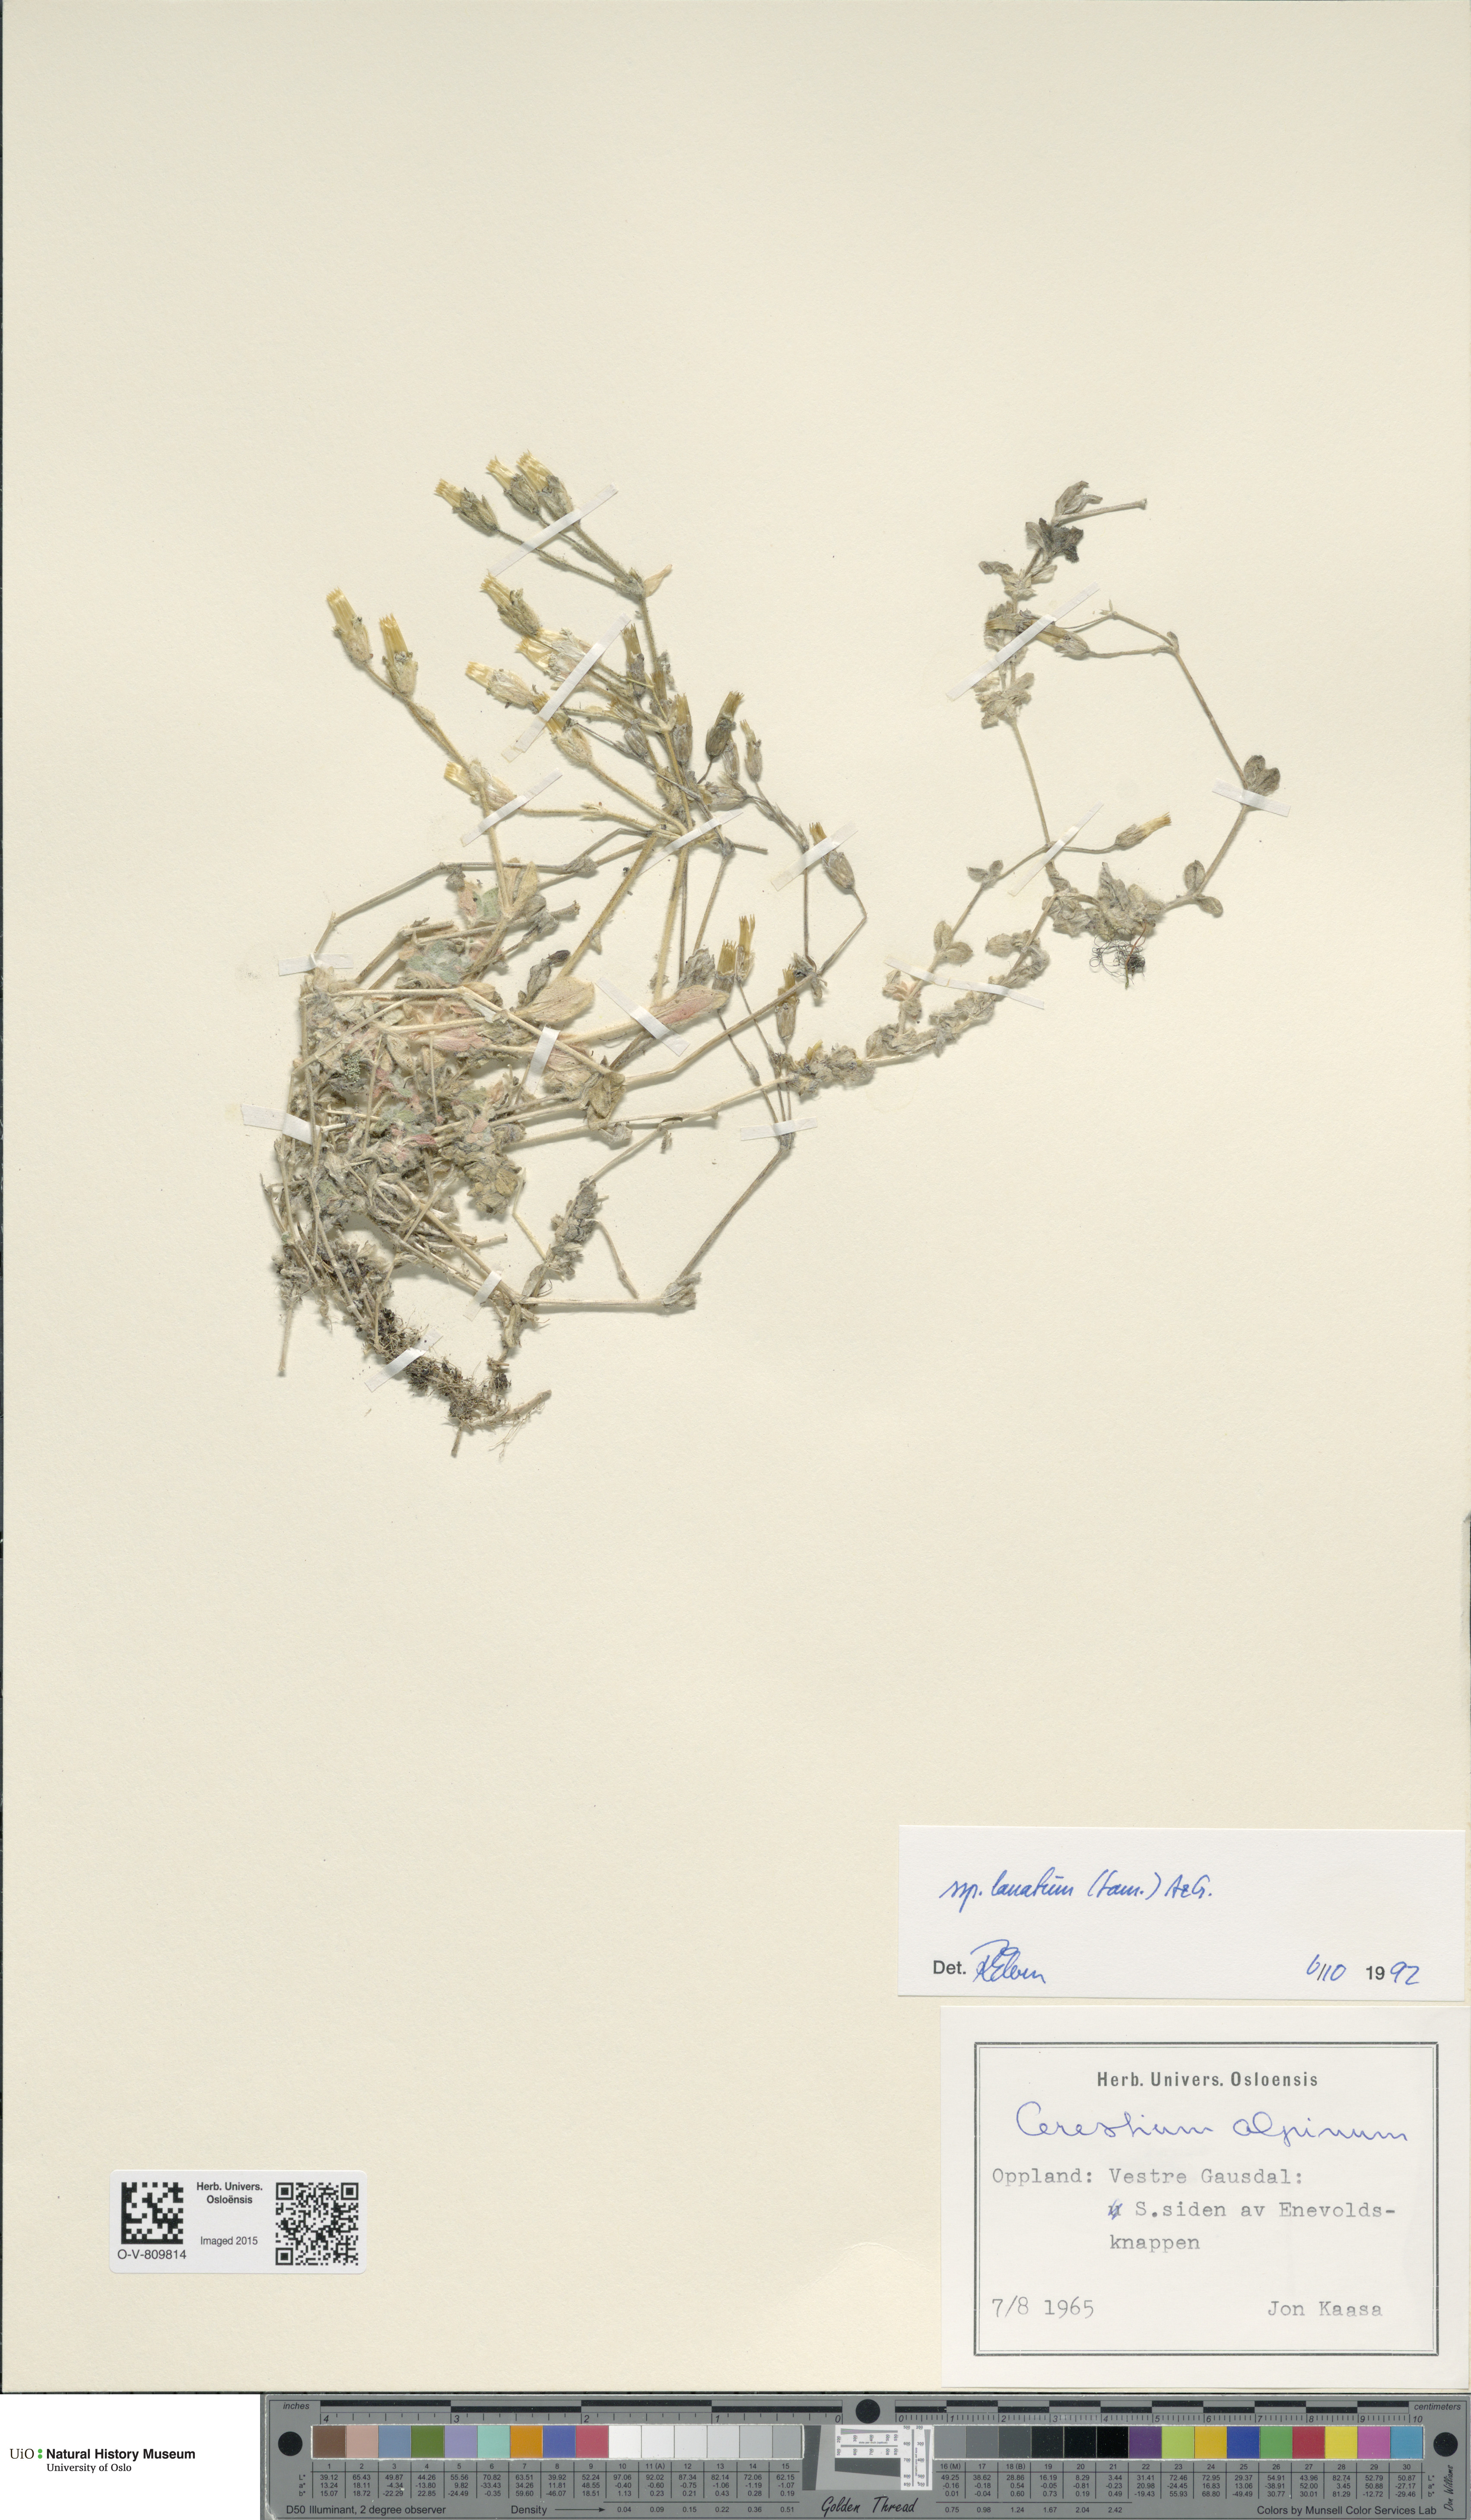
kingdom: Plantae
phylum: Tracheophyta
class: Magnoliopsida
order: Caryophyllales
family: Caryophyllaceae
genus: Cerastium
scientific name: Cerastium alpinum
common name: Alpine mouse-ear
